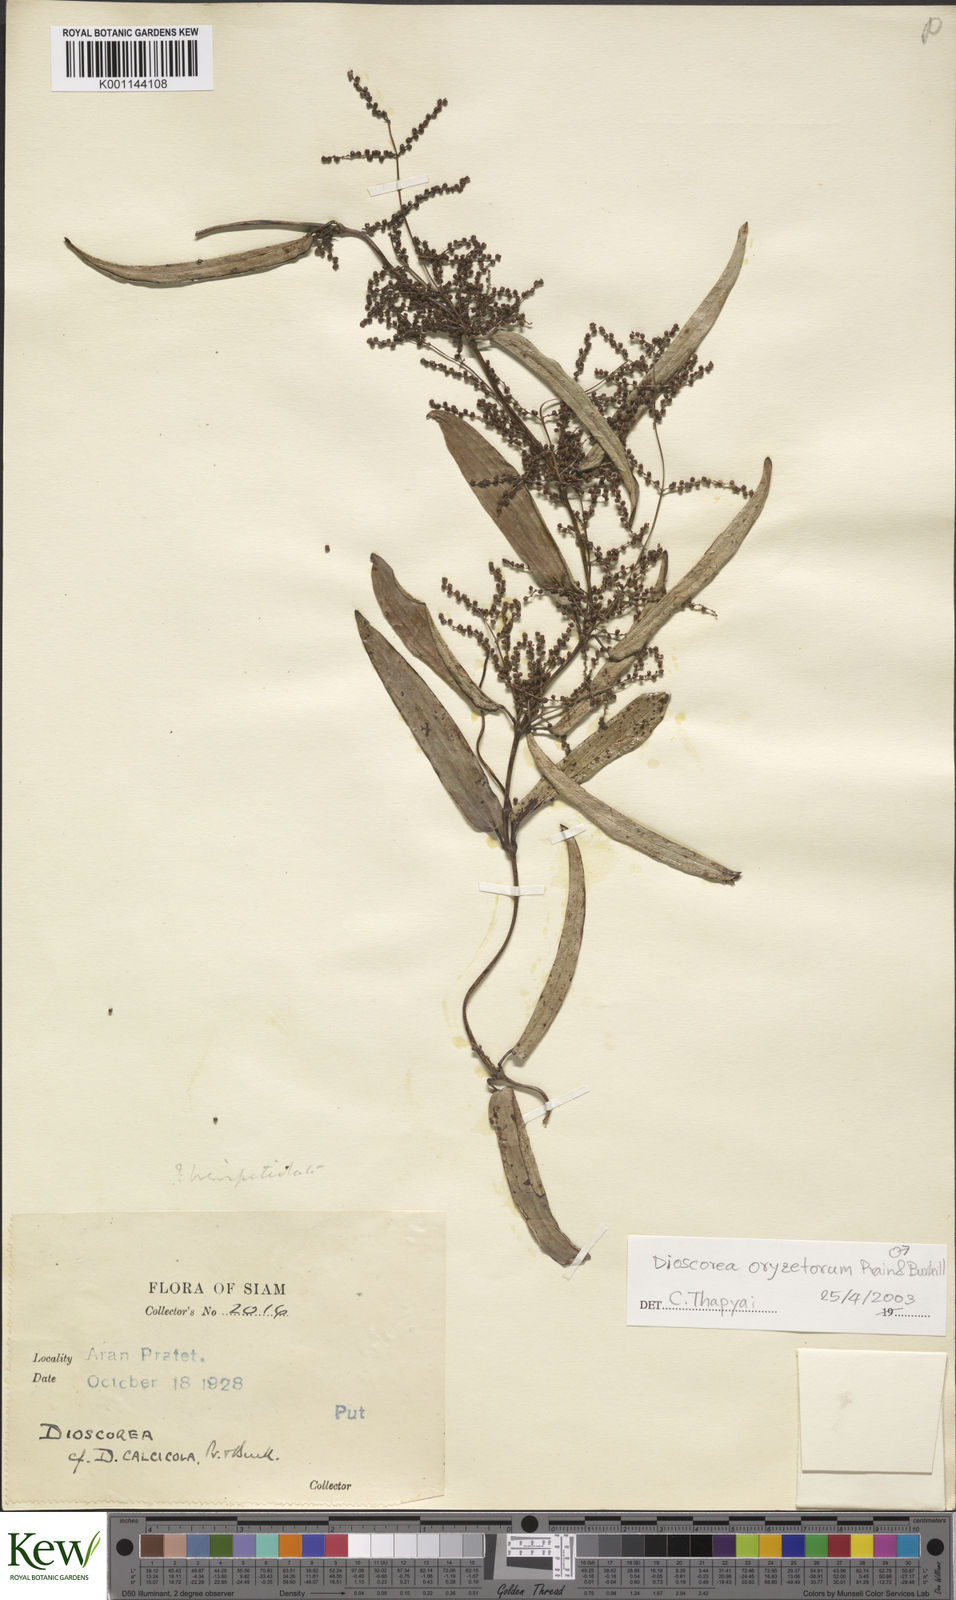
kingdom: Plantae
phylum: Tracheophyta
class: Liliopsida
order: Dioscoreales
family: Dioscoreaceae
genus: Dioscorea
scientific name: Dioscorea
